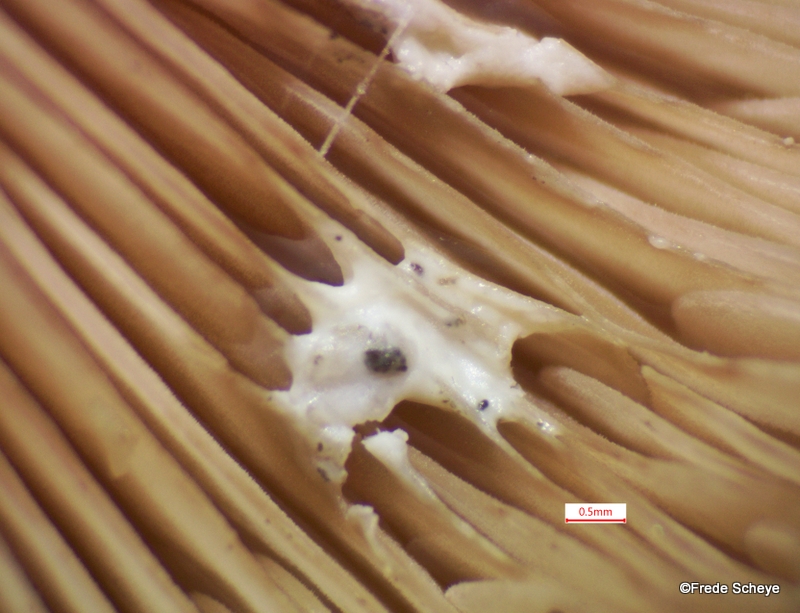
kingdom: Fungi
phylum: Basidiomycota
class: Agaricomycetes
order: Russulales
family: Russulaceae
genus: Lactarius
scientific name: Lactarius subdulcis
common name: sødlig mælkehat
